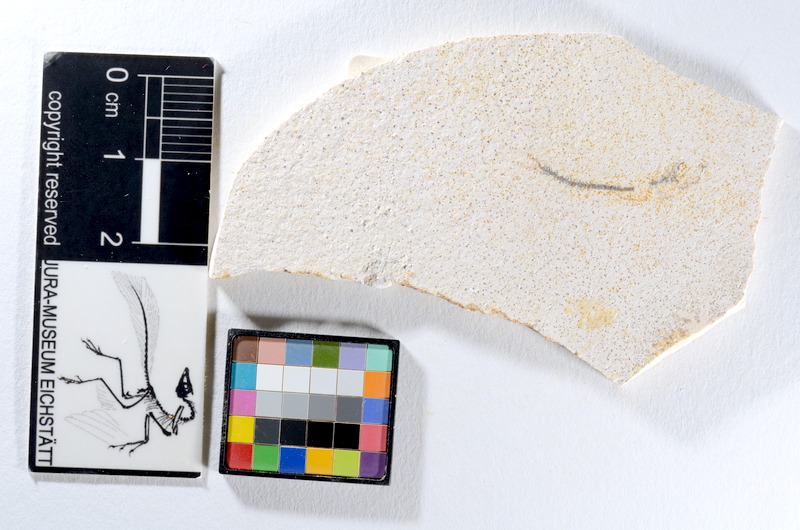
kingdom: Animalia
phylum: Chordata
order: Salmoniformes
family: Orthogonikleithridae
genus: Orthogonikleithrus
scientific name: Orthogonikleithrus hoelli
